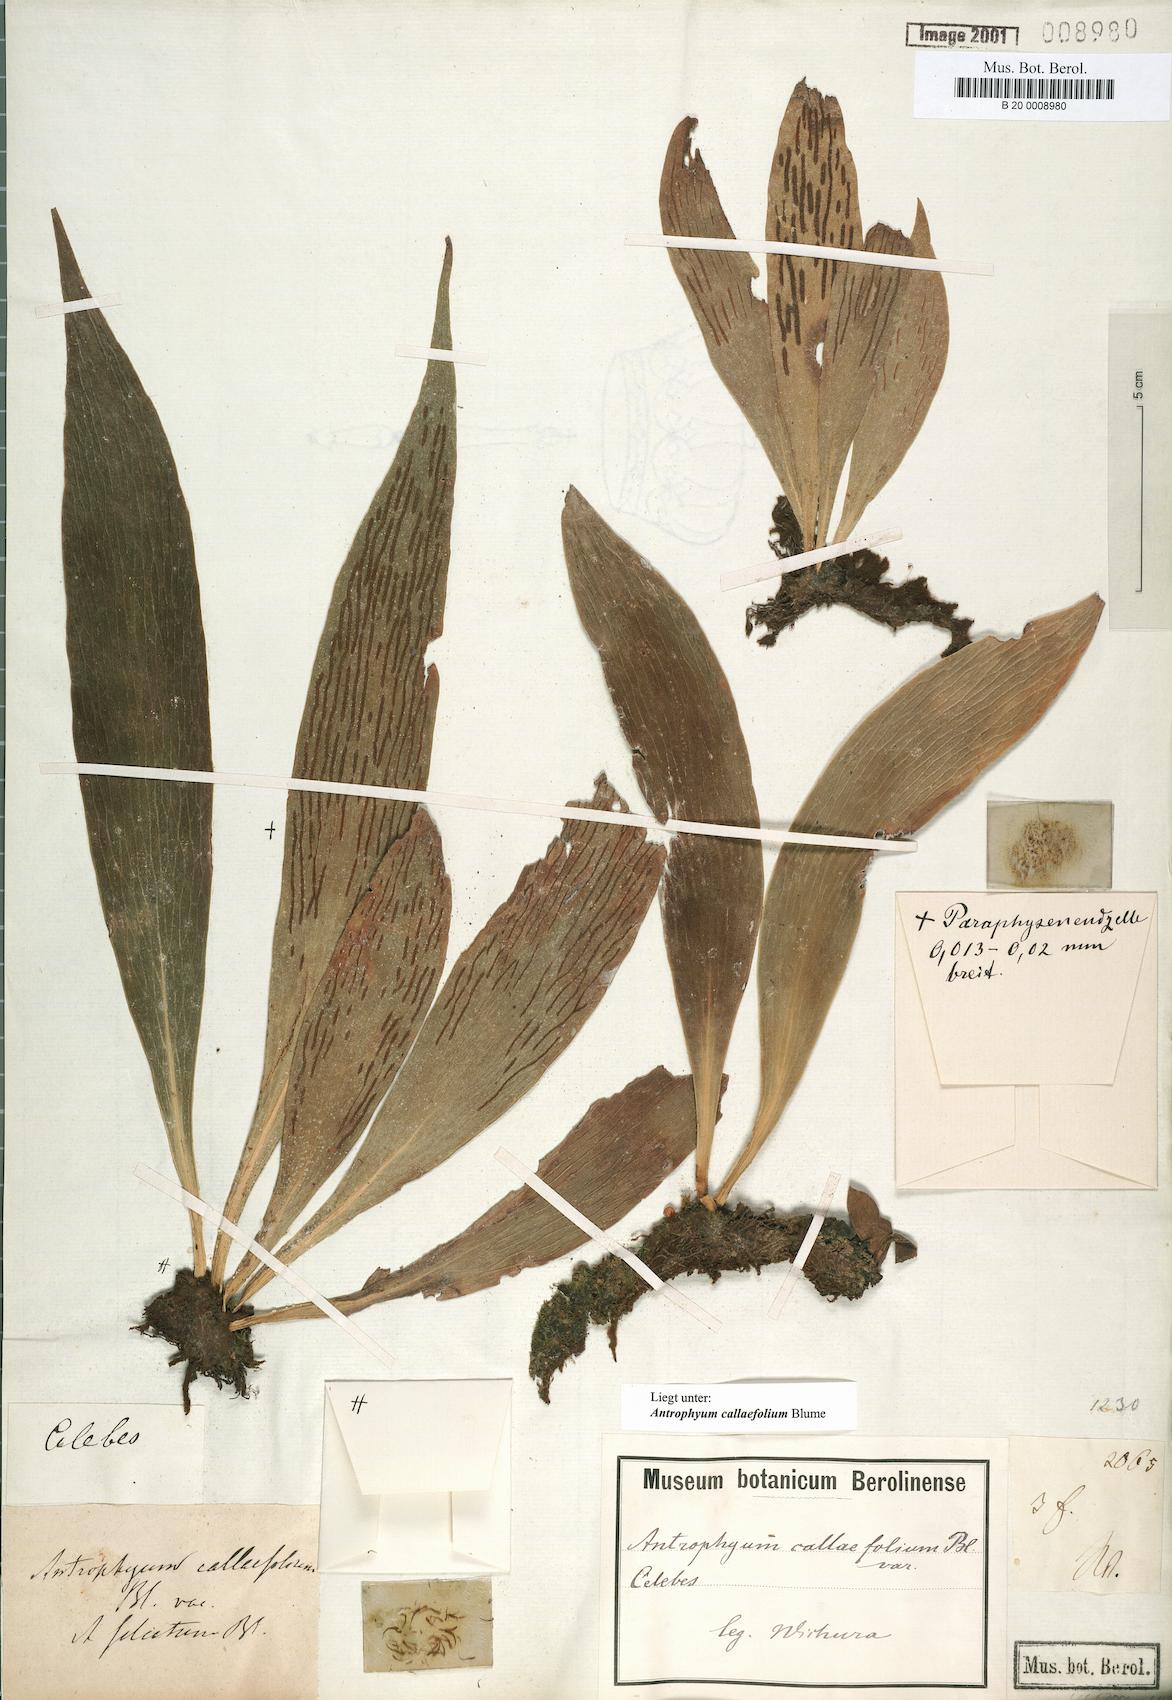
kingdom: Plantae
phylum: Tracheophyta
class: Polypodiopsida
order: Polypodiales
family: Pteridaceae
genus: Antrophyum
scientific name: Antrophyum callifolium
